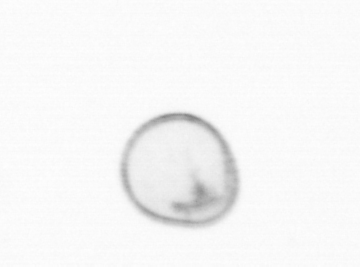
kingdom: Chromista
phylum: Myzozoa
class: Dinophyceae
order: Noctilucales
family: Noctilucaceae
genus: Noctiluca
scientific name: Noctiluca scintillans
